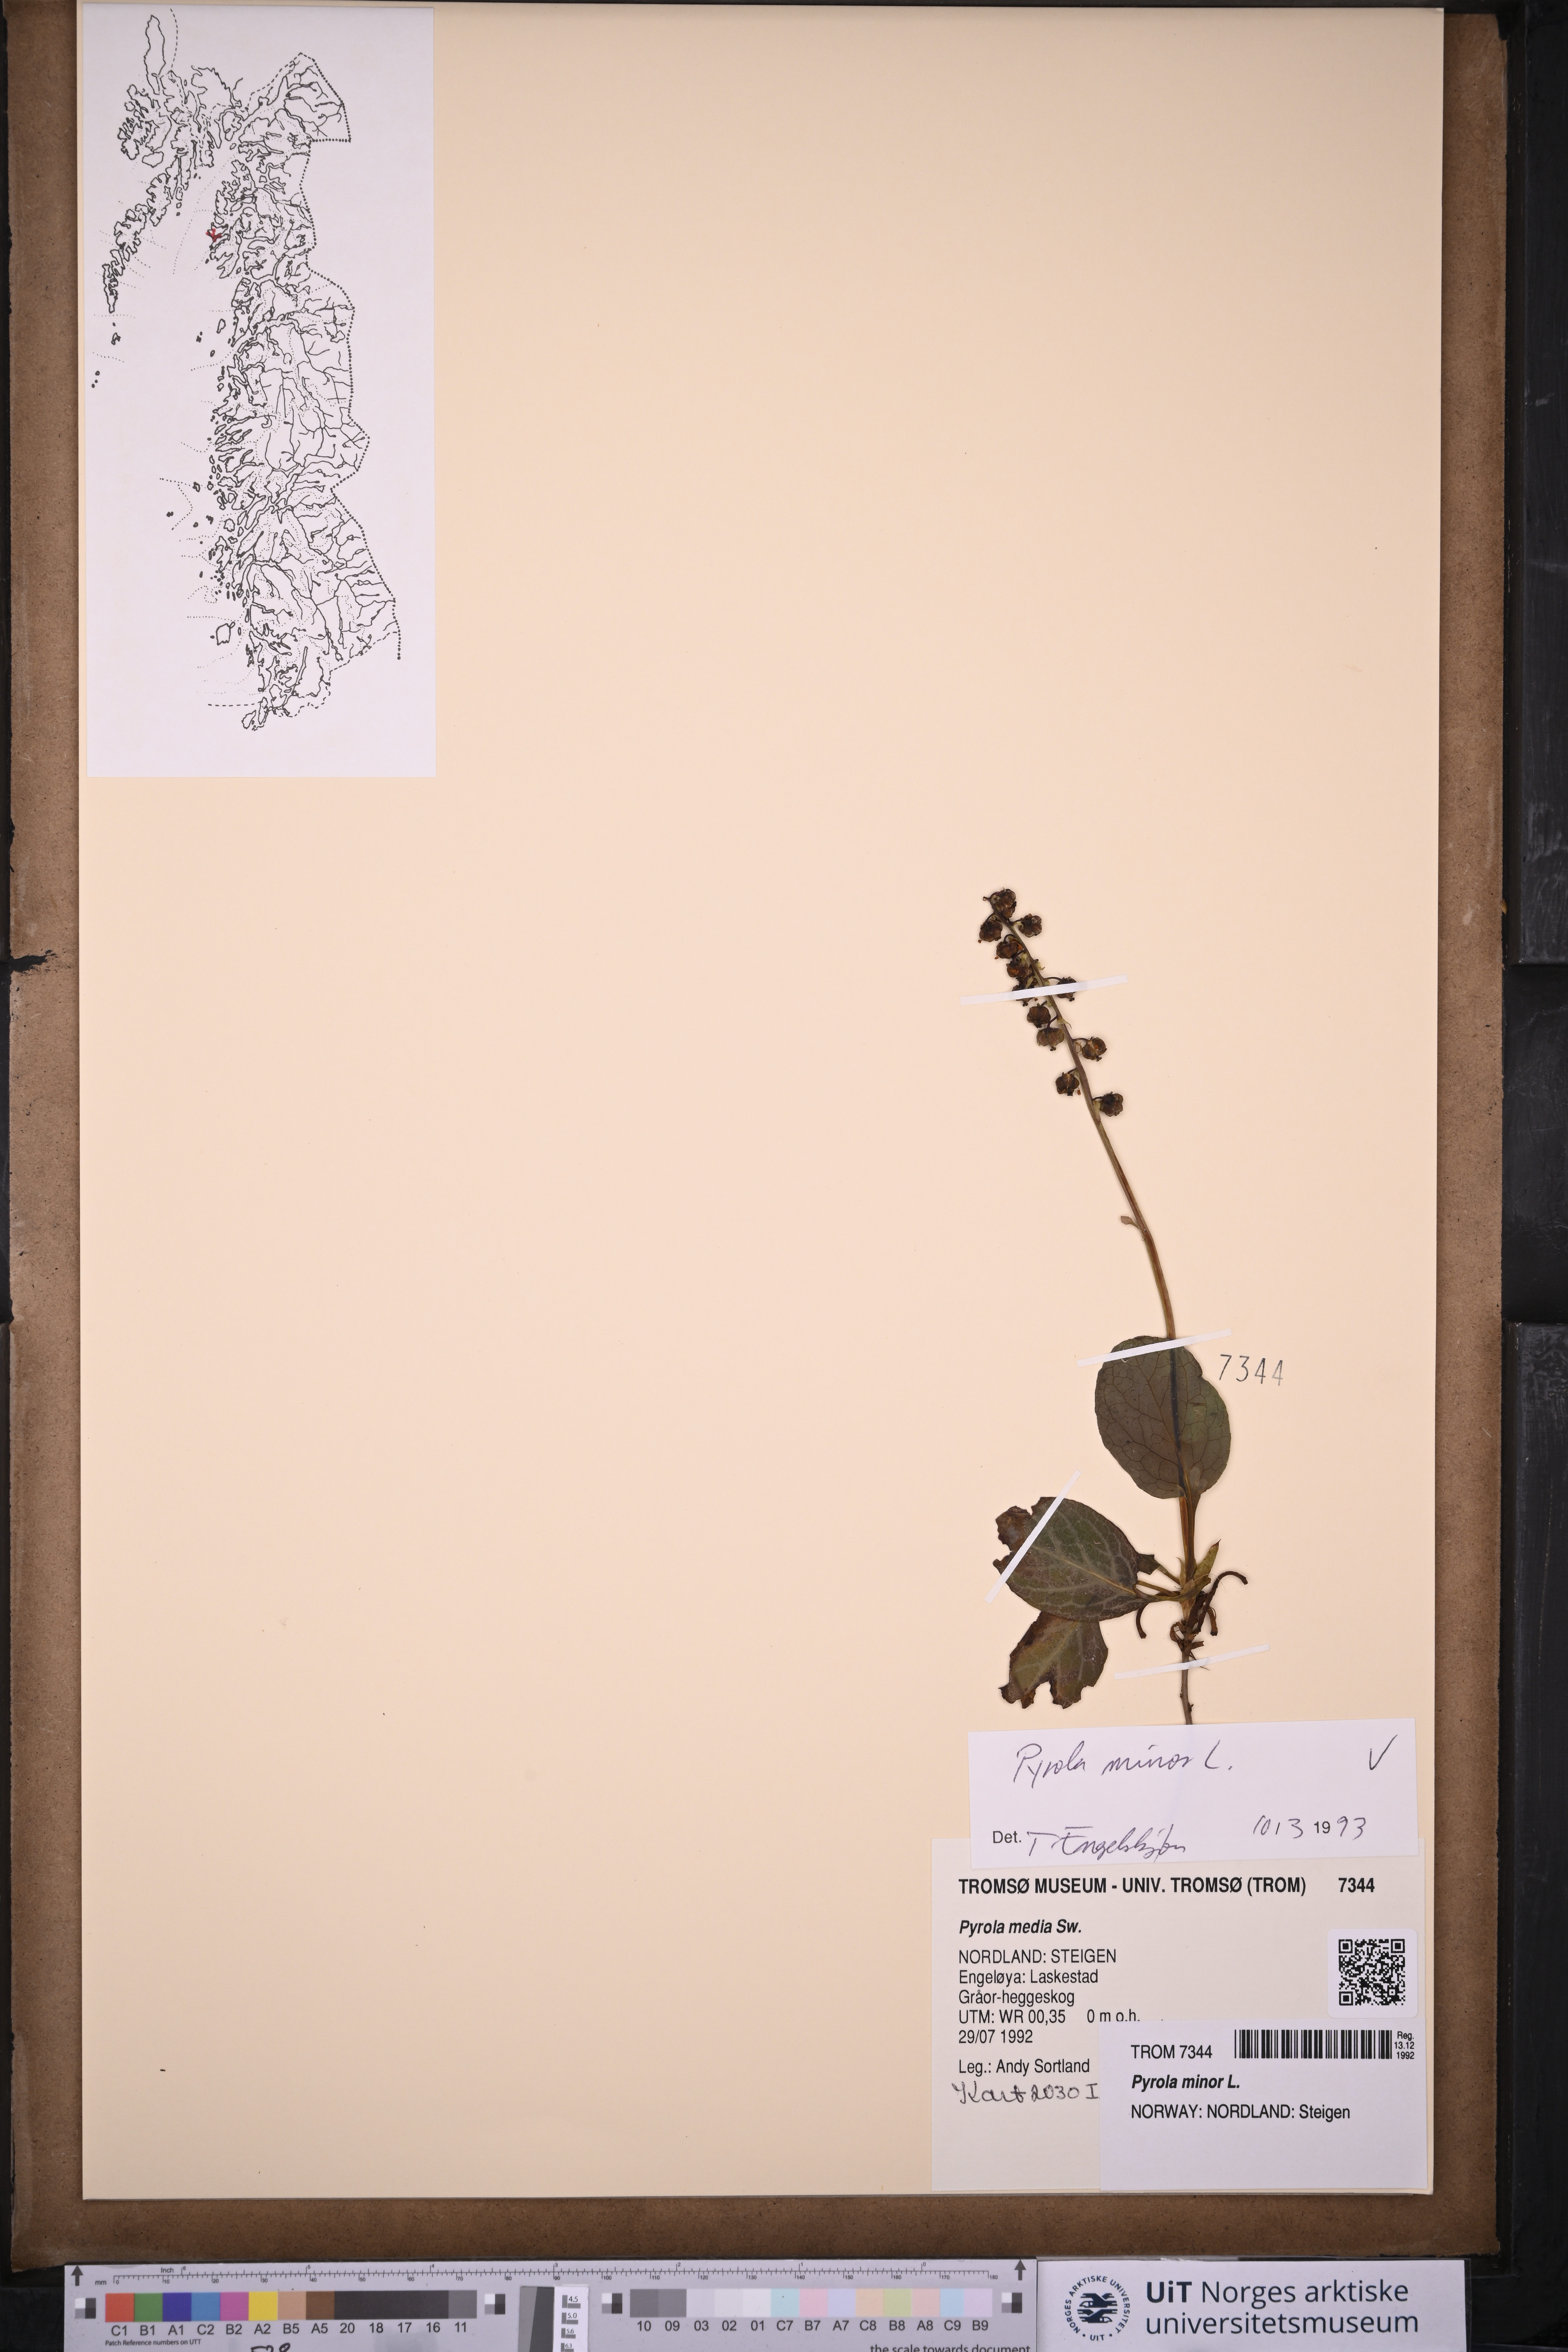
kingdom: Plantae
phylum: Tracheophyta
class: Magnoliopsida
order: Ericales
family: Ericaceae
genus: Pyrola
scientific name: Pyrola minor
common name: Common wintergreen
